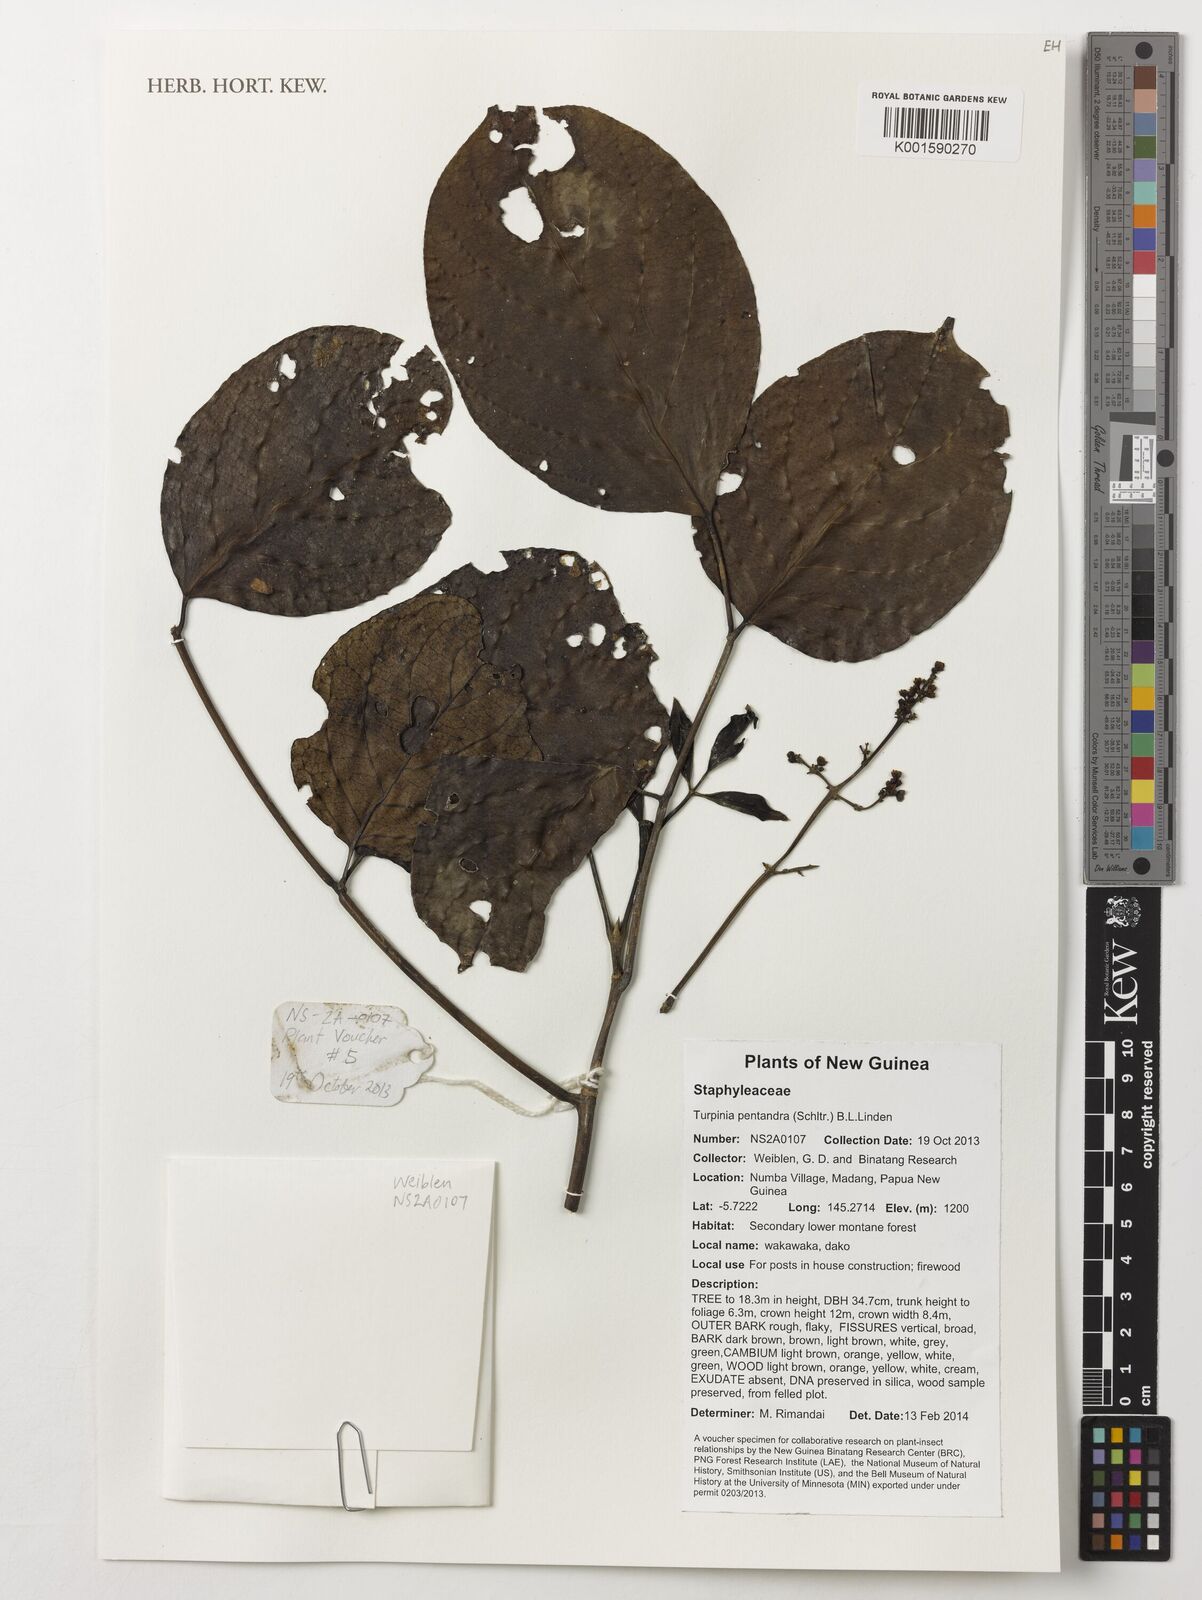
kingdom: Plantae
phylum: Tracheophyta
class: Magnoliopsida
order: Crossosomatales
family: Staphyleaceae
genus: Turpinia
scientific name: Turpinia pentandra
